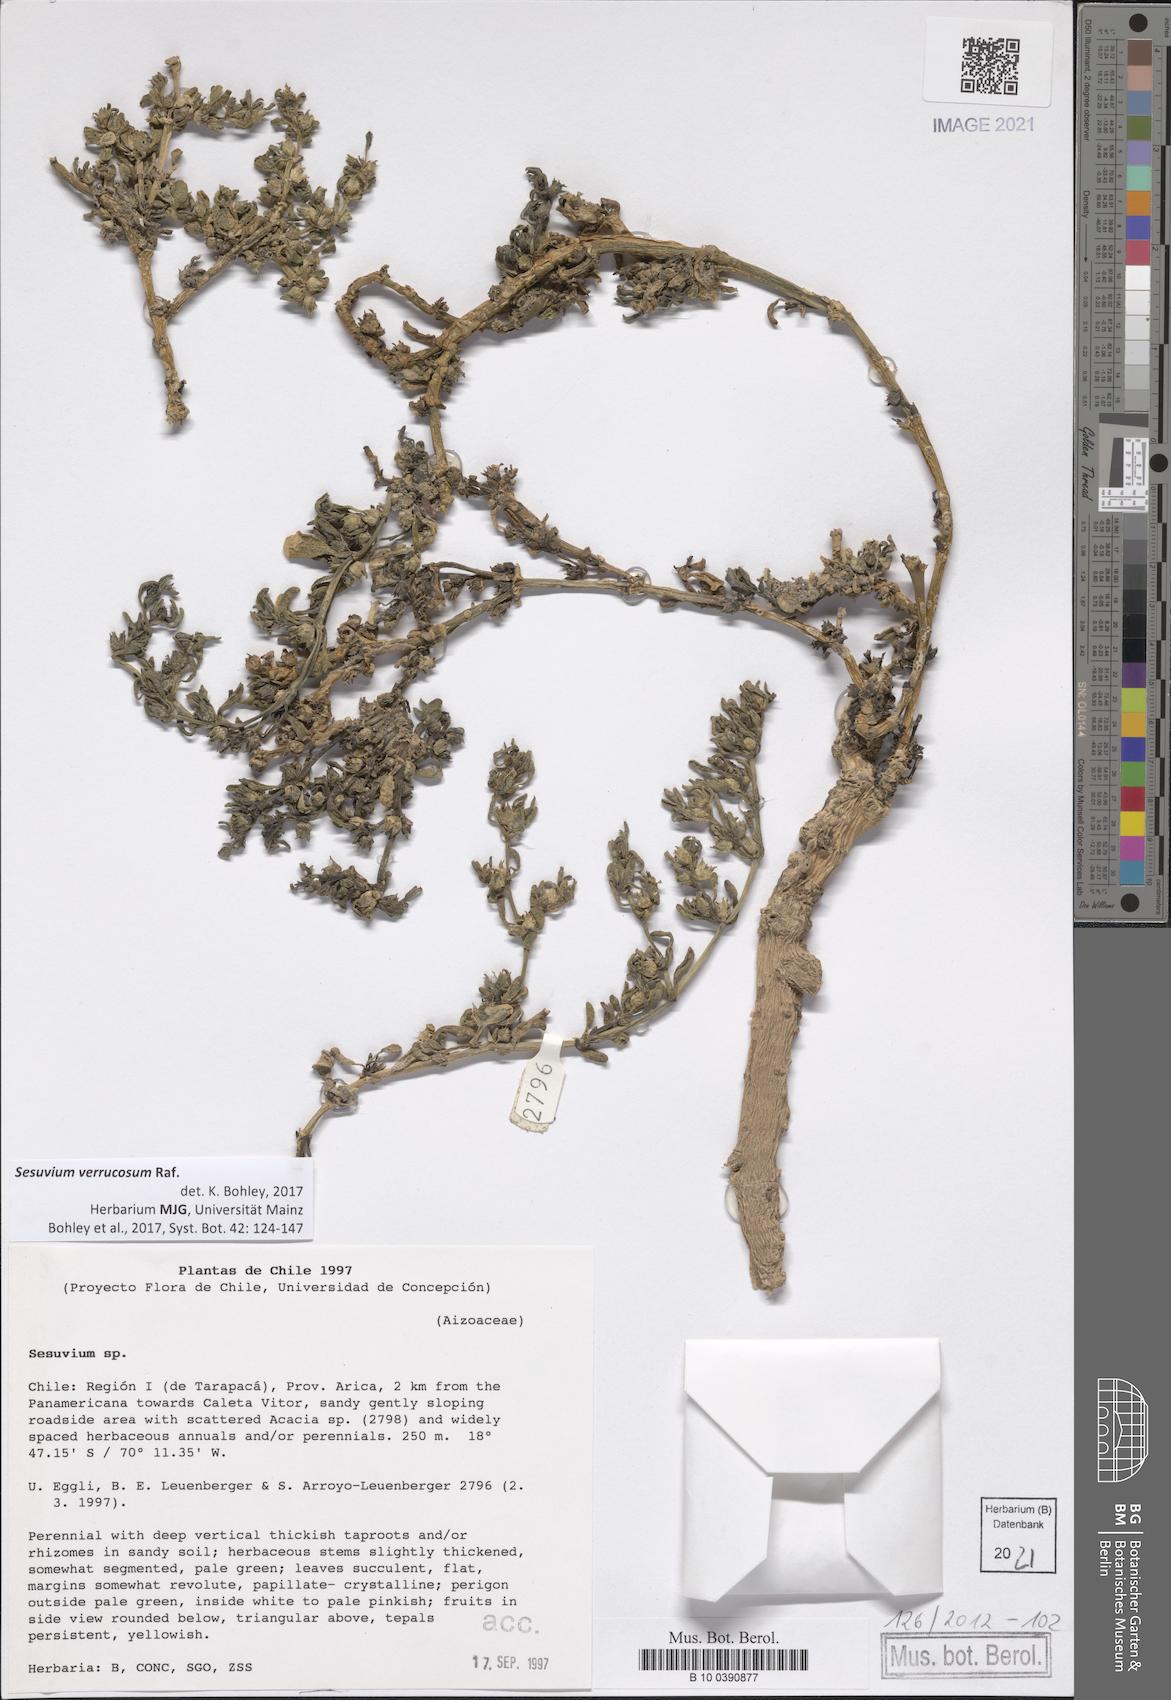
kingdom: Plantae
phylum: Tracheophyta
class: Magnoliopsida
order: Caryophyllales
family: Aizoaceae
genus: Sesuvium
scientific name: Sesuvium revolutifolium
